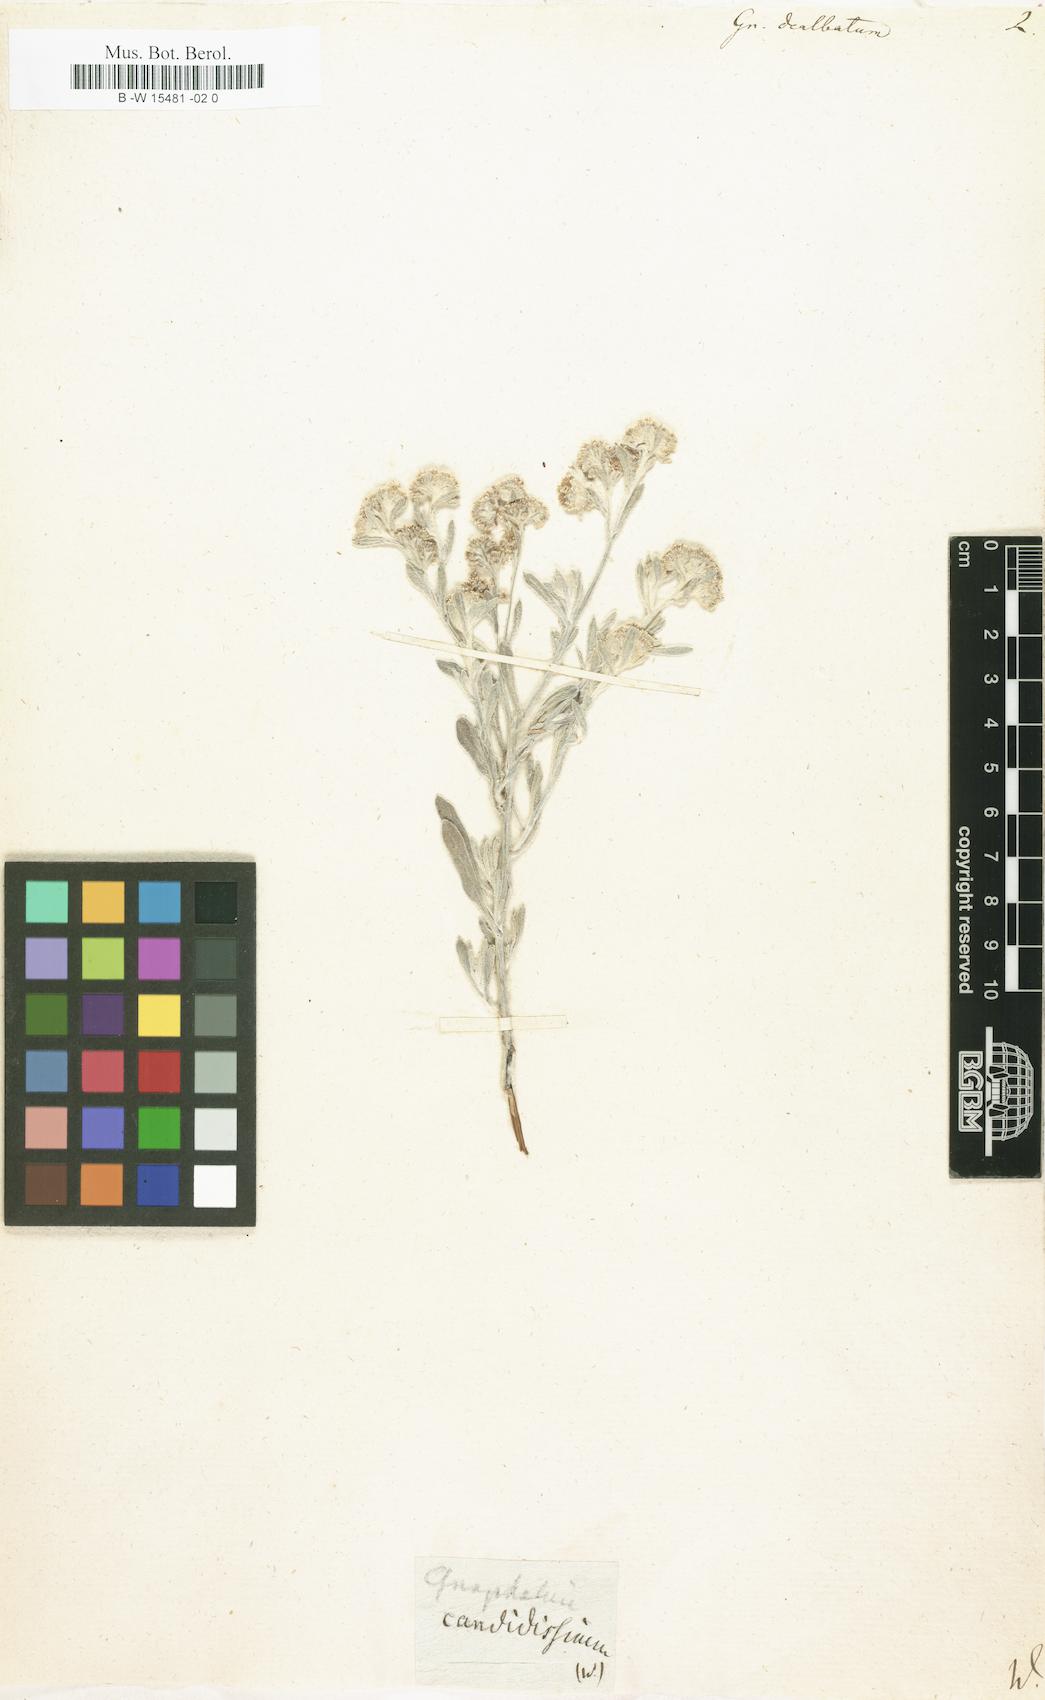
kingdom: Plantae
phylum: Tracheophyta
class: Magnoliopsida
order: Asterales
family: Asteraceae
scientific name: Asteraceae
